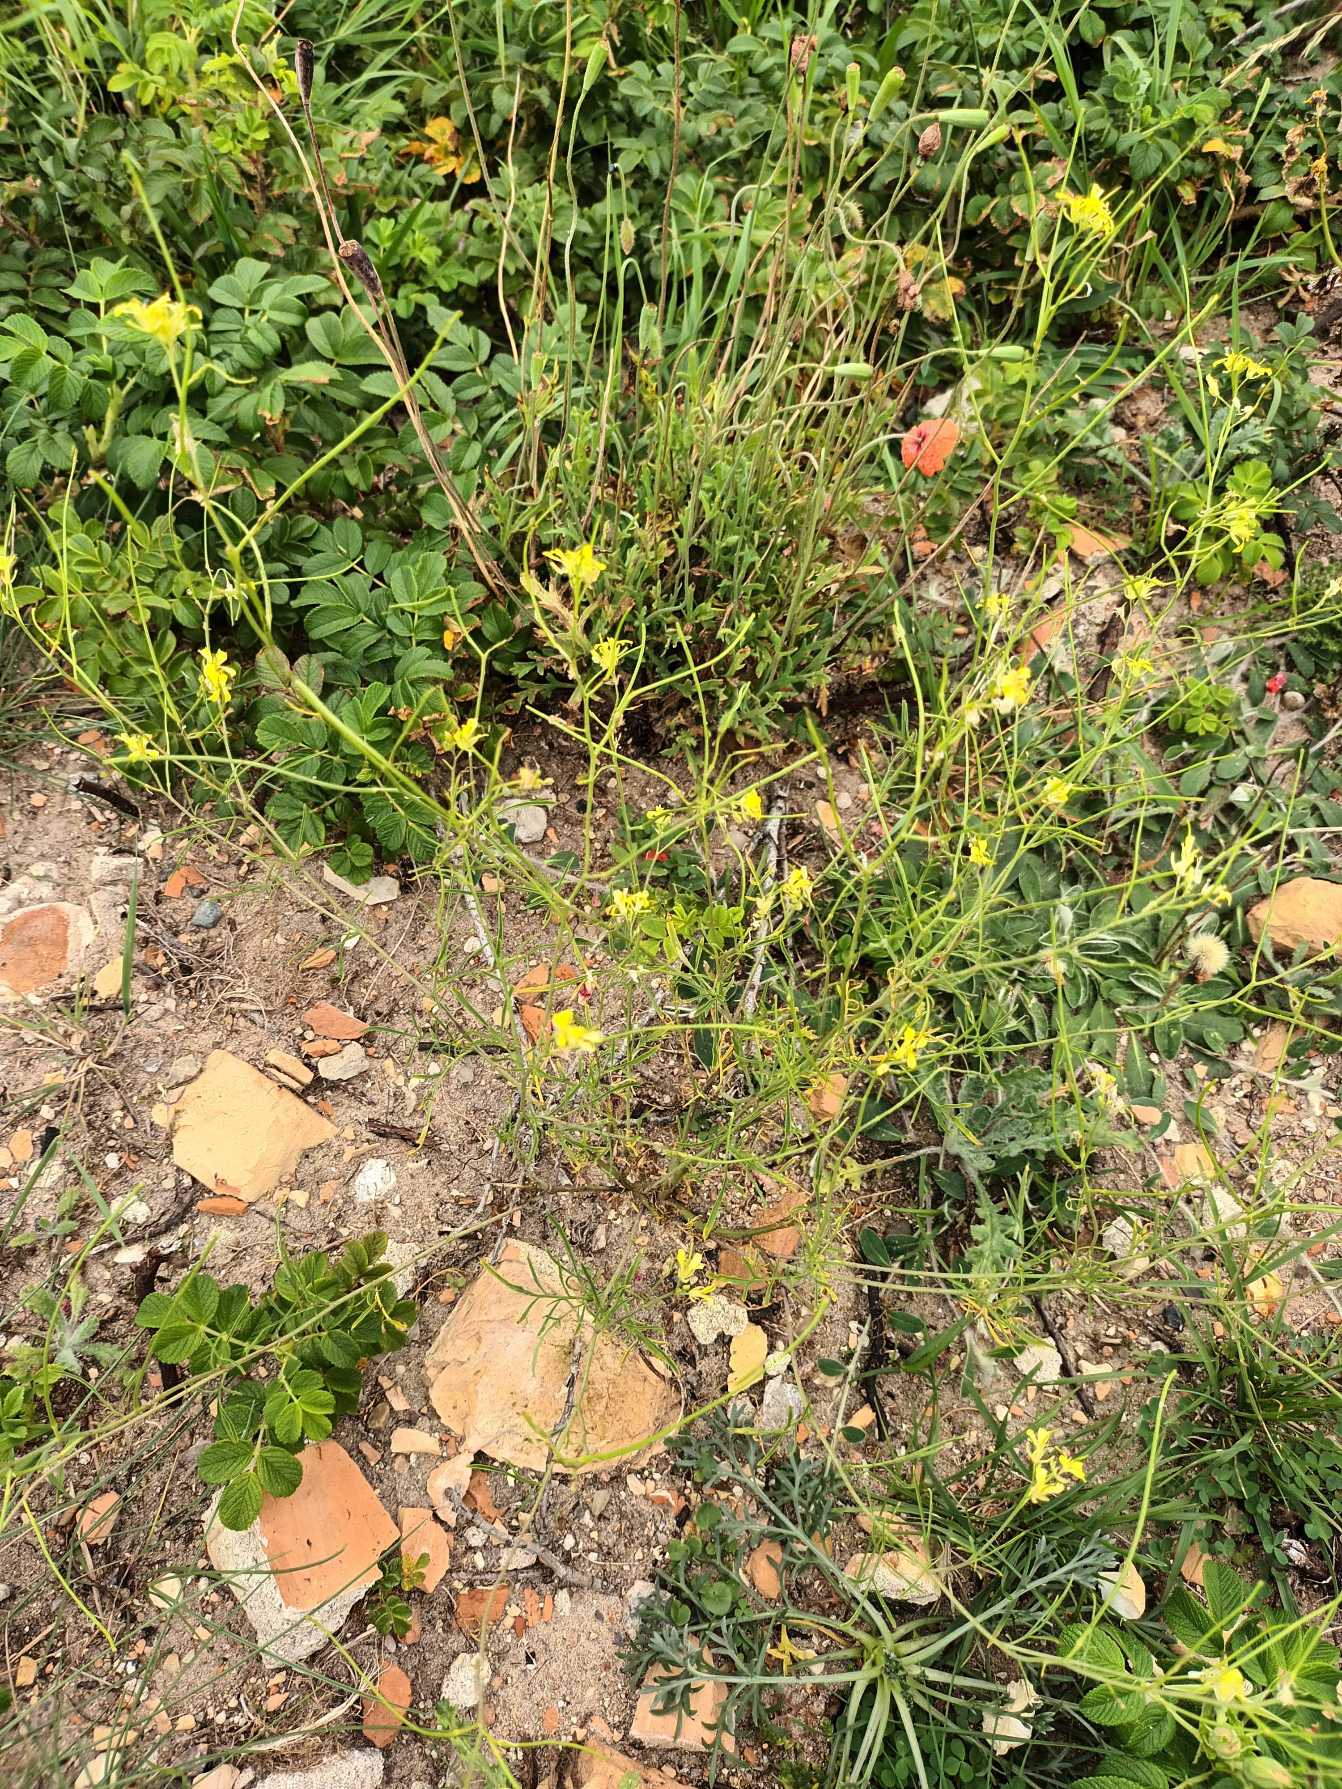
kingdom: Plantae
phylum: Tracheophyta
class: Magnoliopsida
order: Brassicales
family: Brassicaceae
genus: Sisymbrium
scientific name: Sisymbrium altissimum
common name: Ungarsk vejsennep
